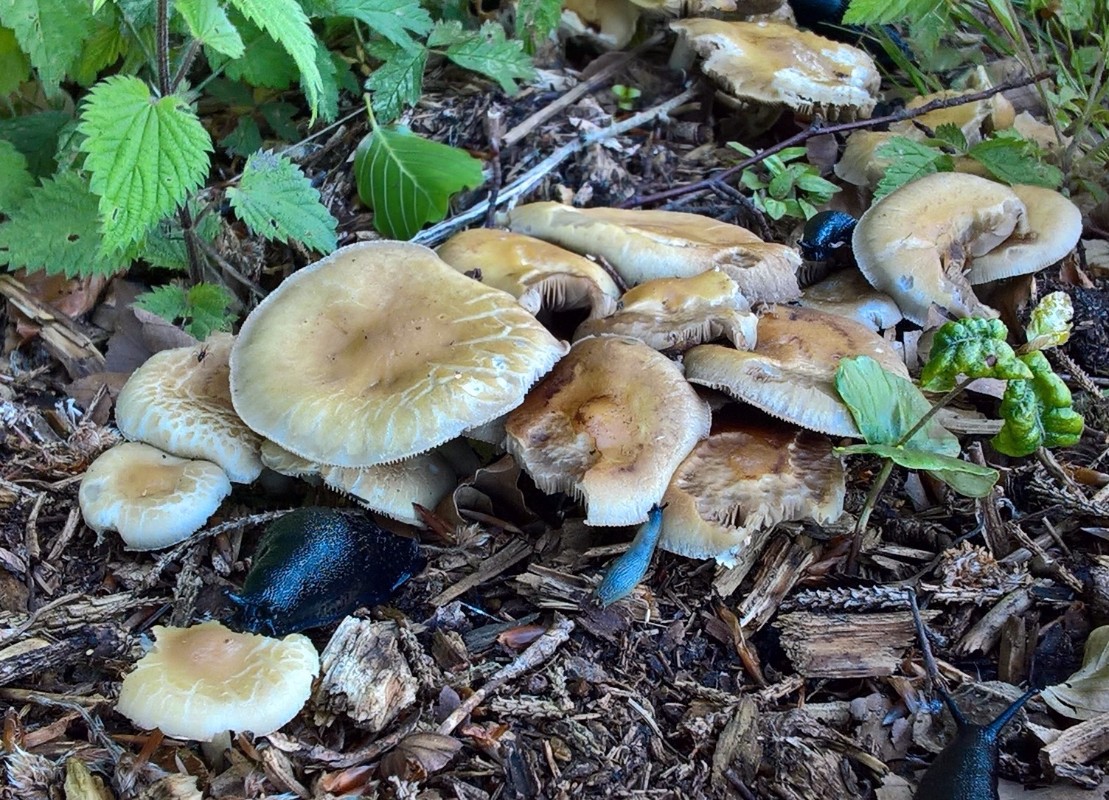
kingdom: Fungi
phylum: Basidiomycota
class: Agaricomycetes
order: Agaricales
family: Strophariaceae
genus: Agrocybe
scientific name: Agrocybe
